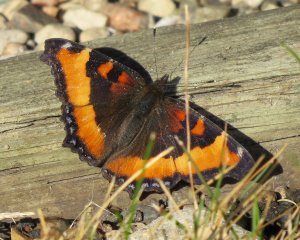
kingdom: Animalia
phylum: Arthropoda
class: Insecta
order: Lepidoptera
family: Nymphalidae
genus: Aglais
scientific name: Aglais milberti
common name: Milbert's Tortoiseshell
